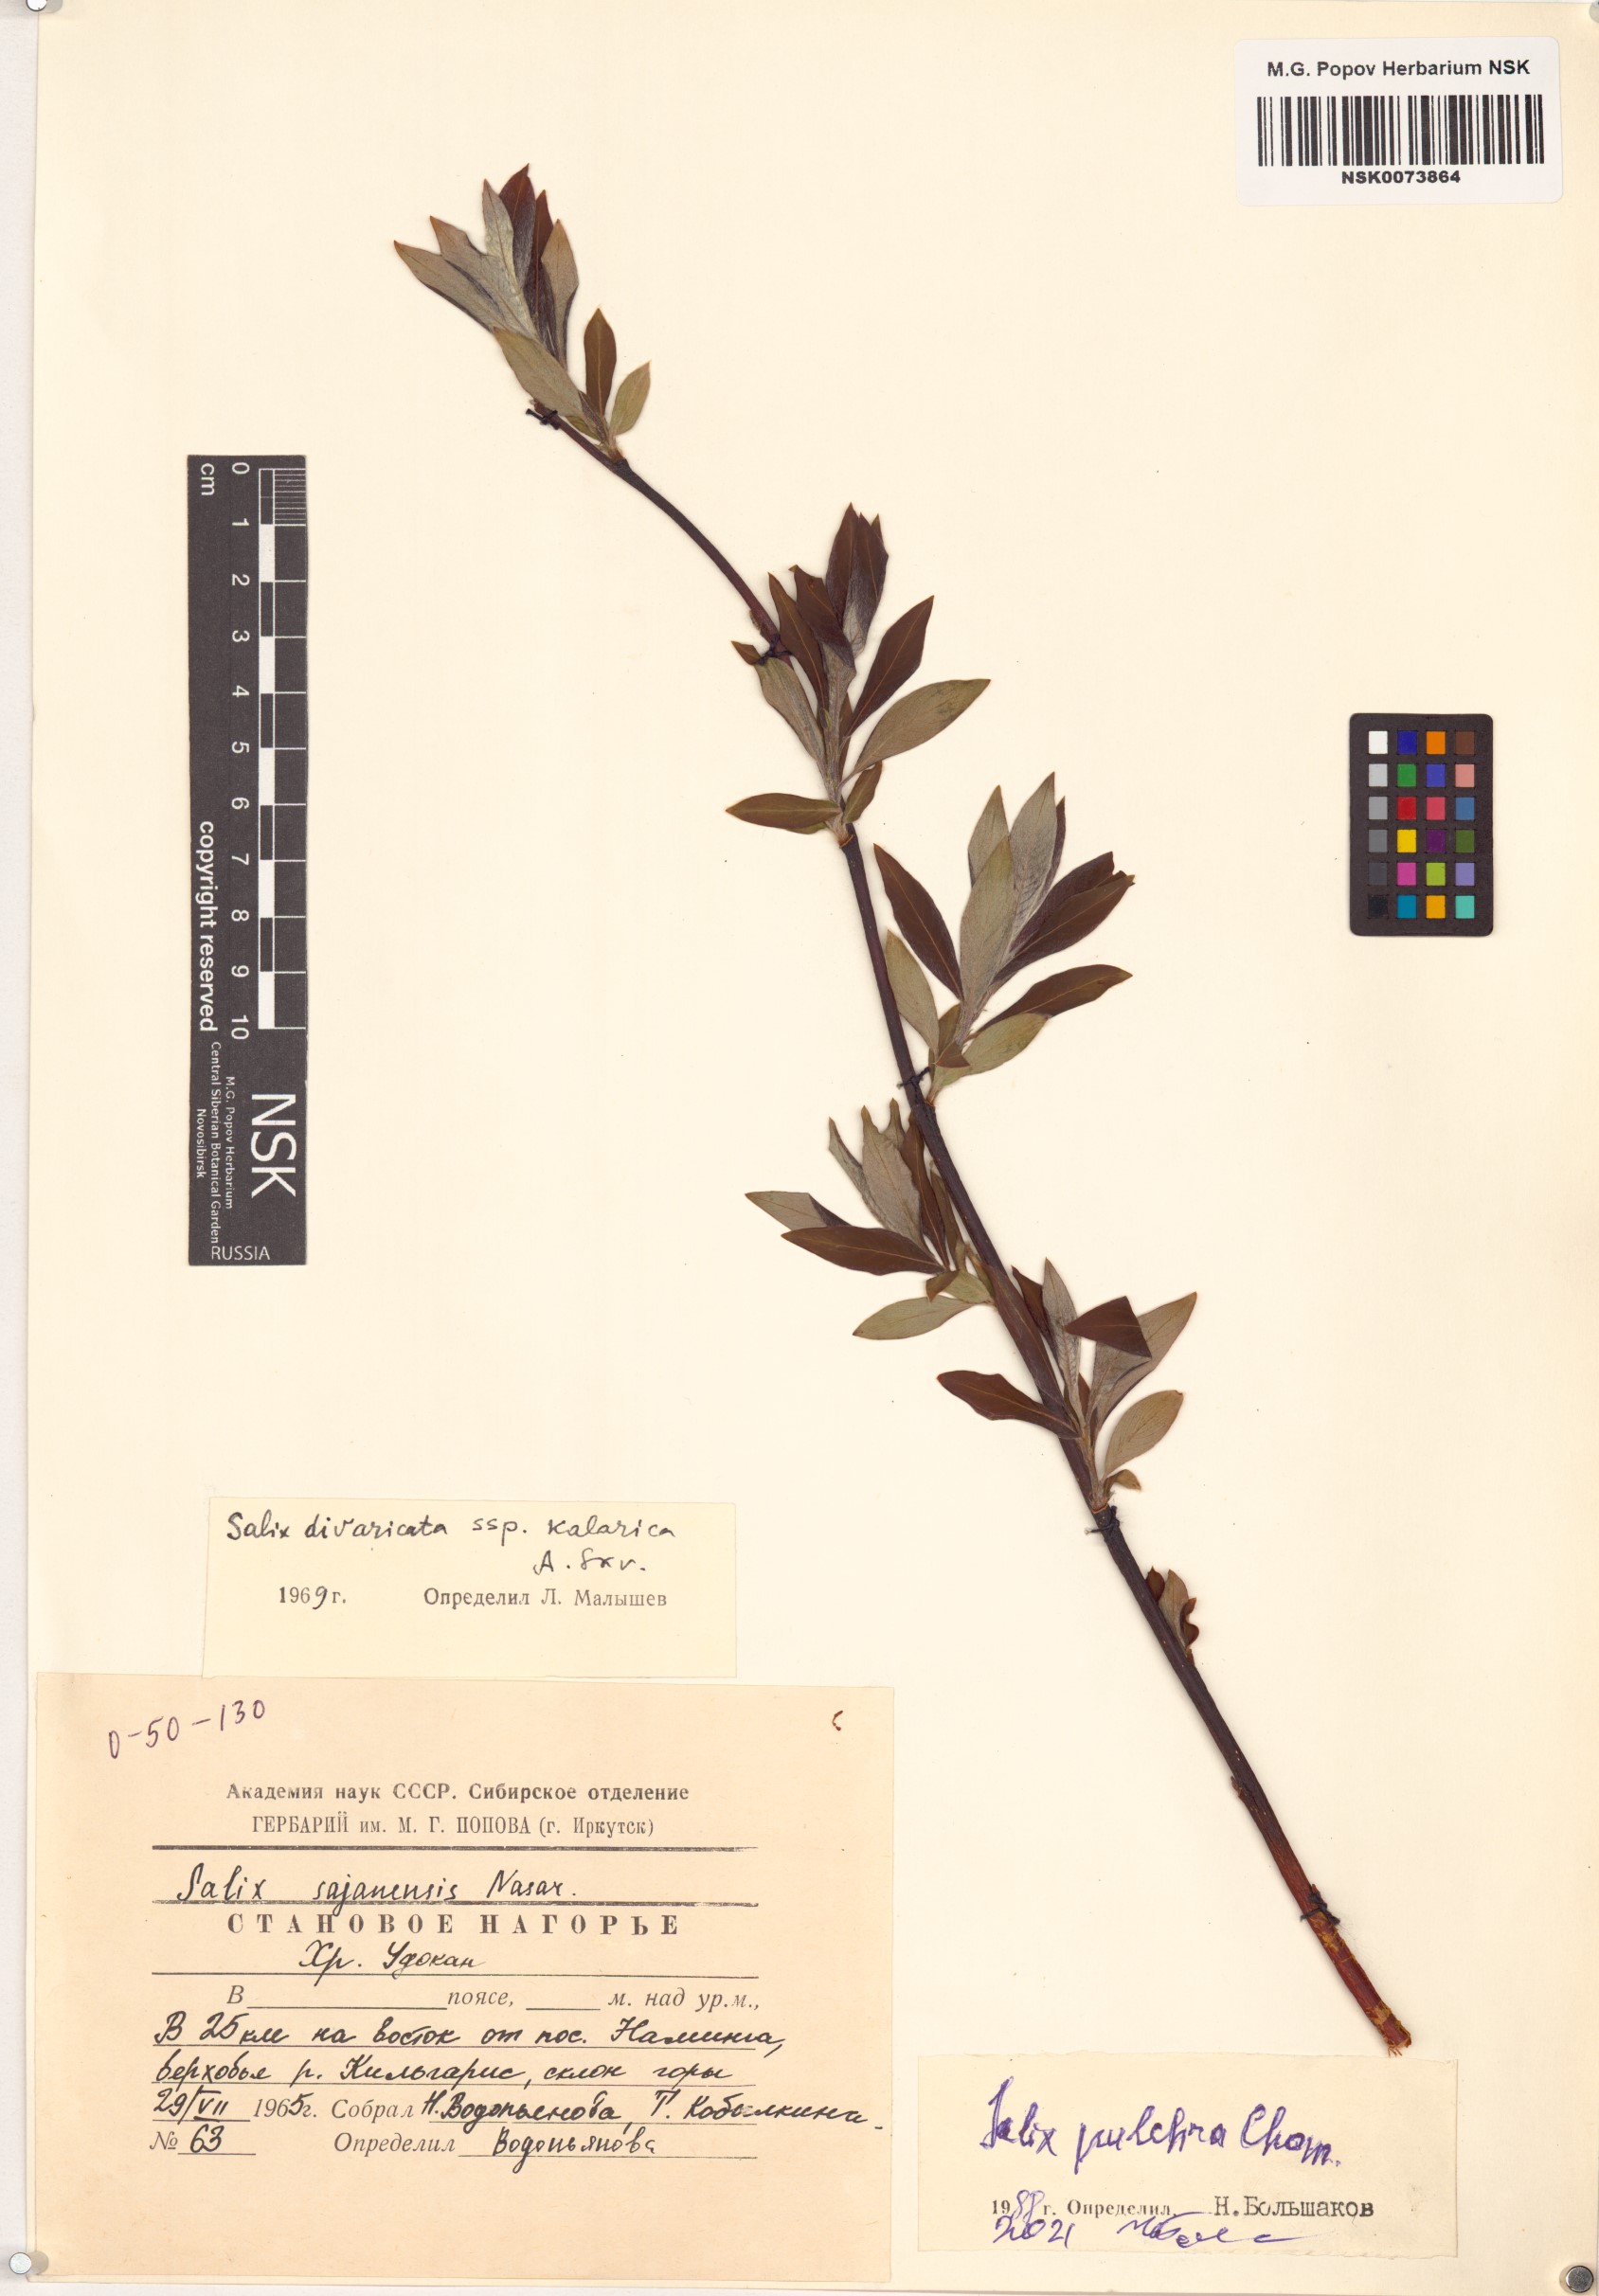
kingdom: Plantae
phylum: Tracheophyta
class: Magnoliopsida
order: Malpighiales
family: Salicaceae
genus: Salix
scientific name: Salix pulchra
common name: Diamond-leaved willow
